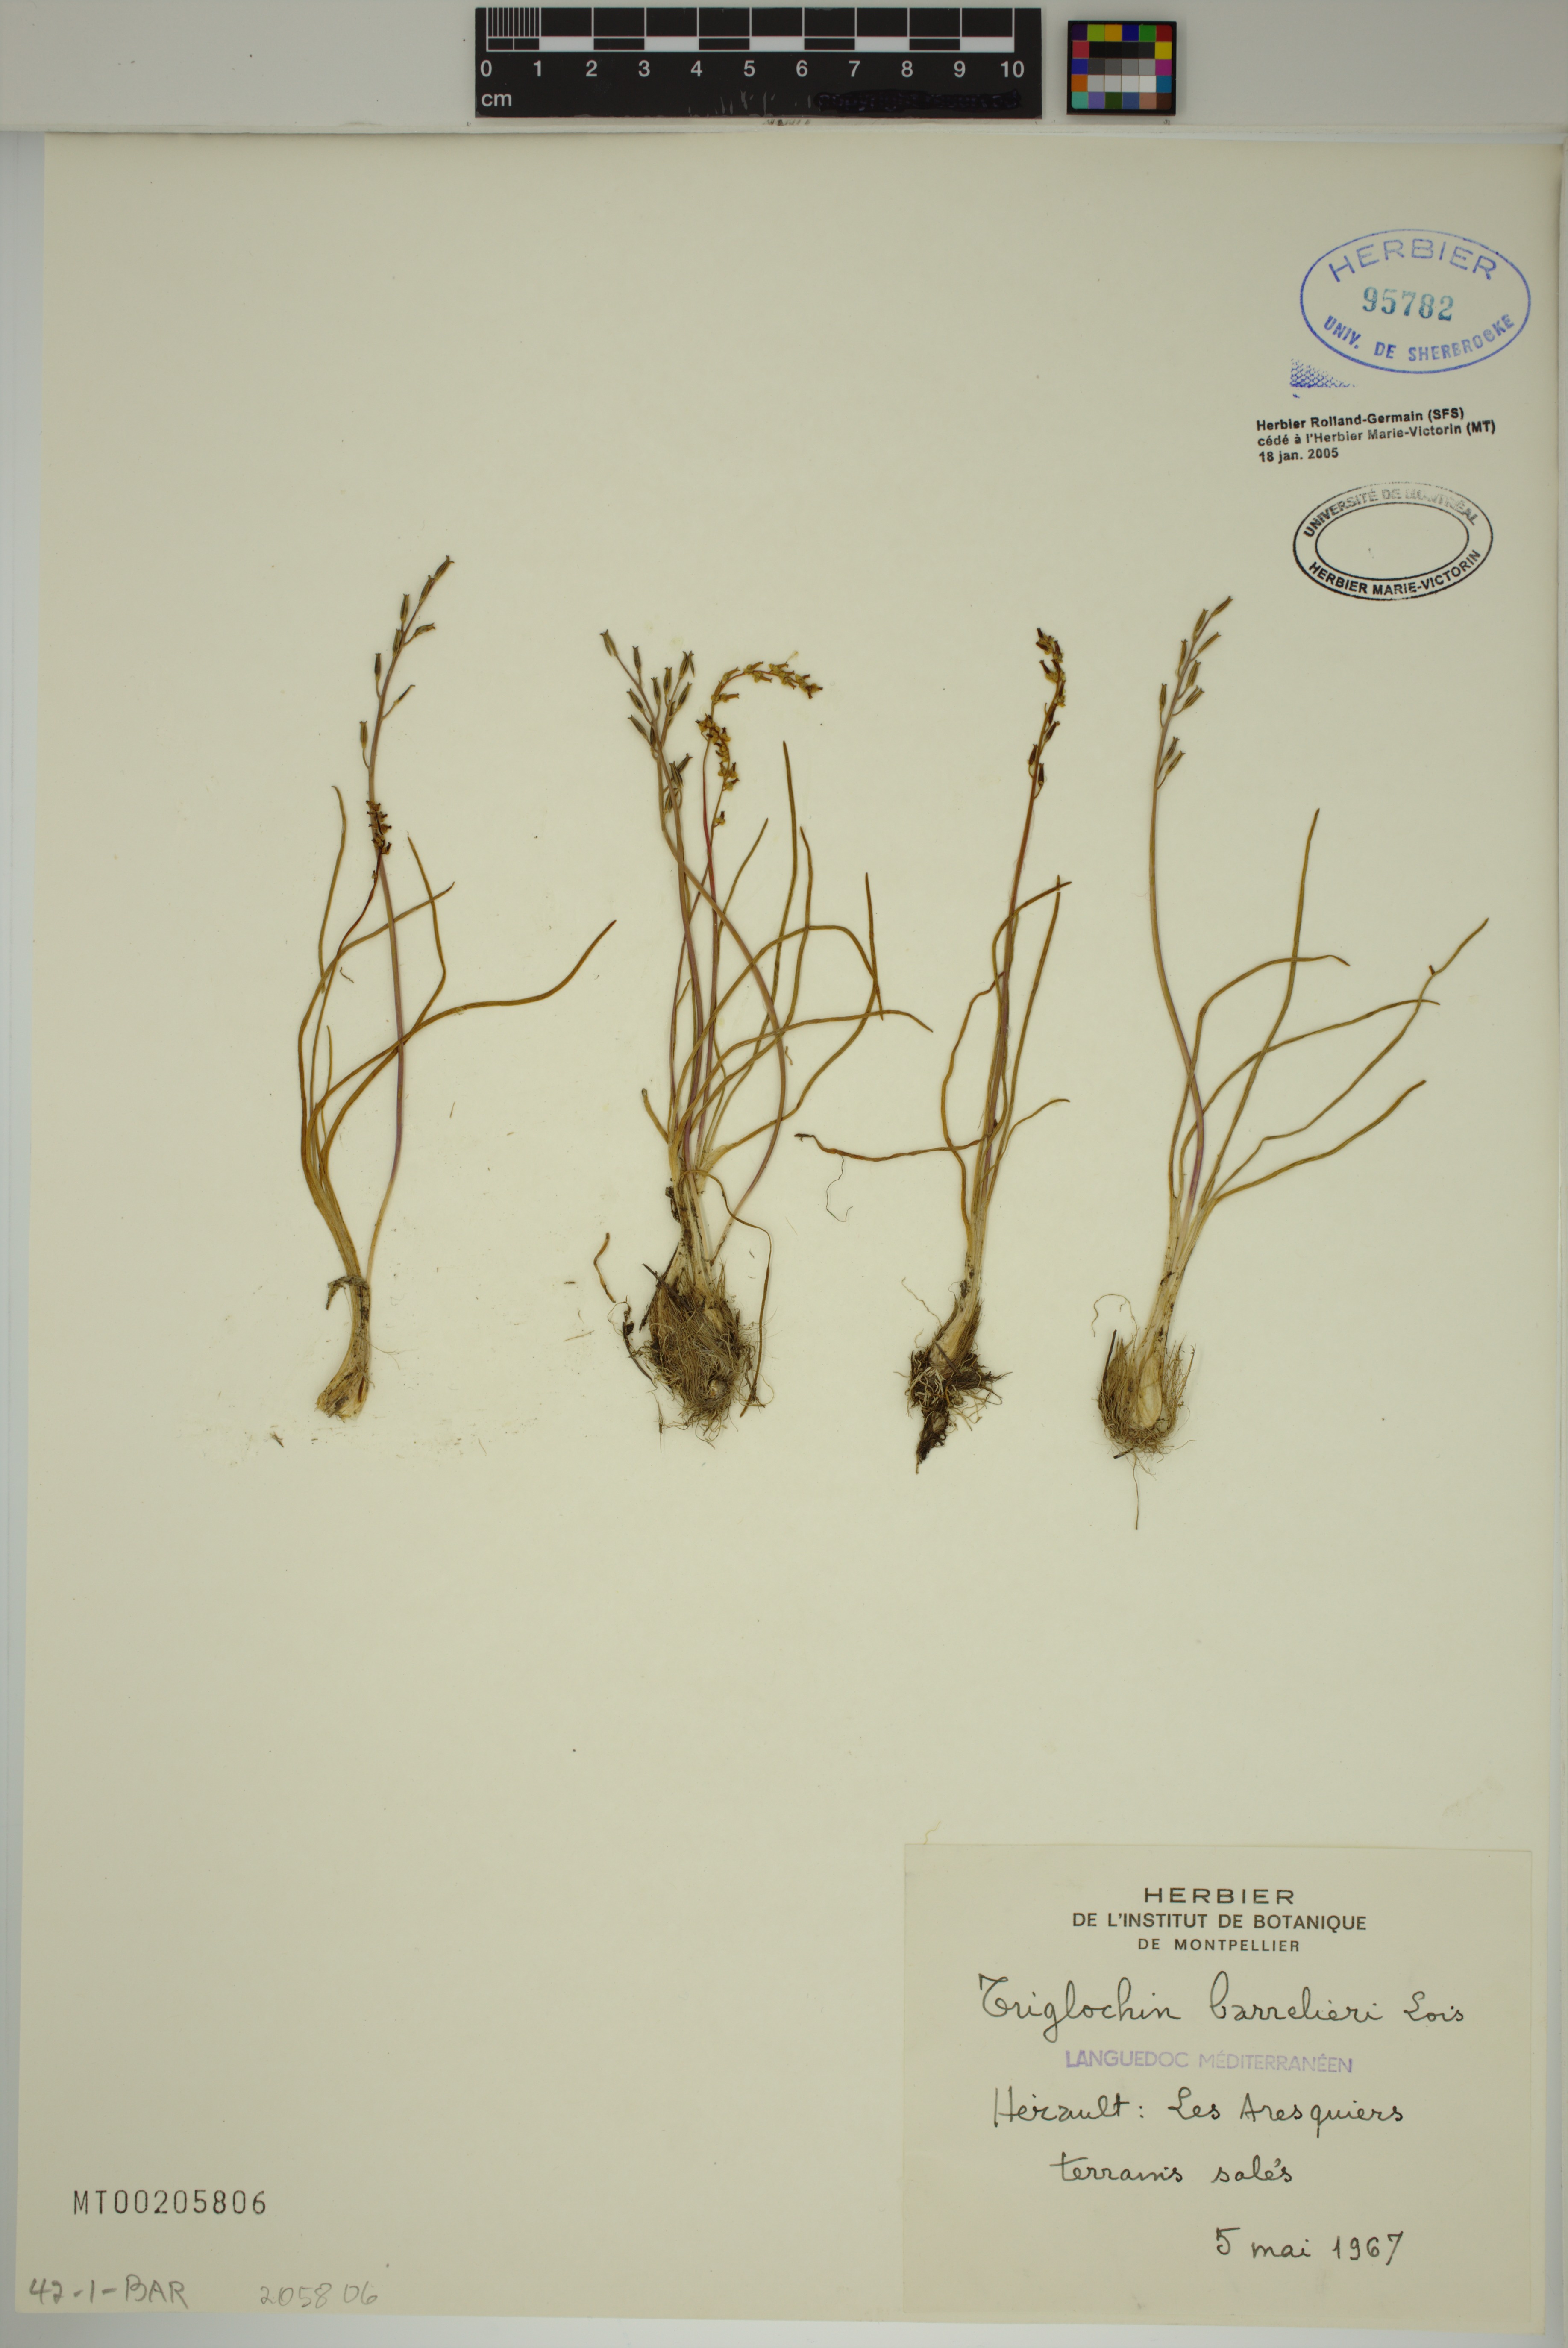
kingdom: Plantae
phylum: Tracheophyta
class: Liliopsida
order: Alismatales
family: Juncaginaceae
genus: Triglochin
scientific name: Triglochin barrelieri
